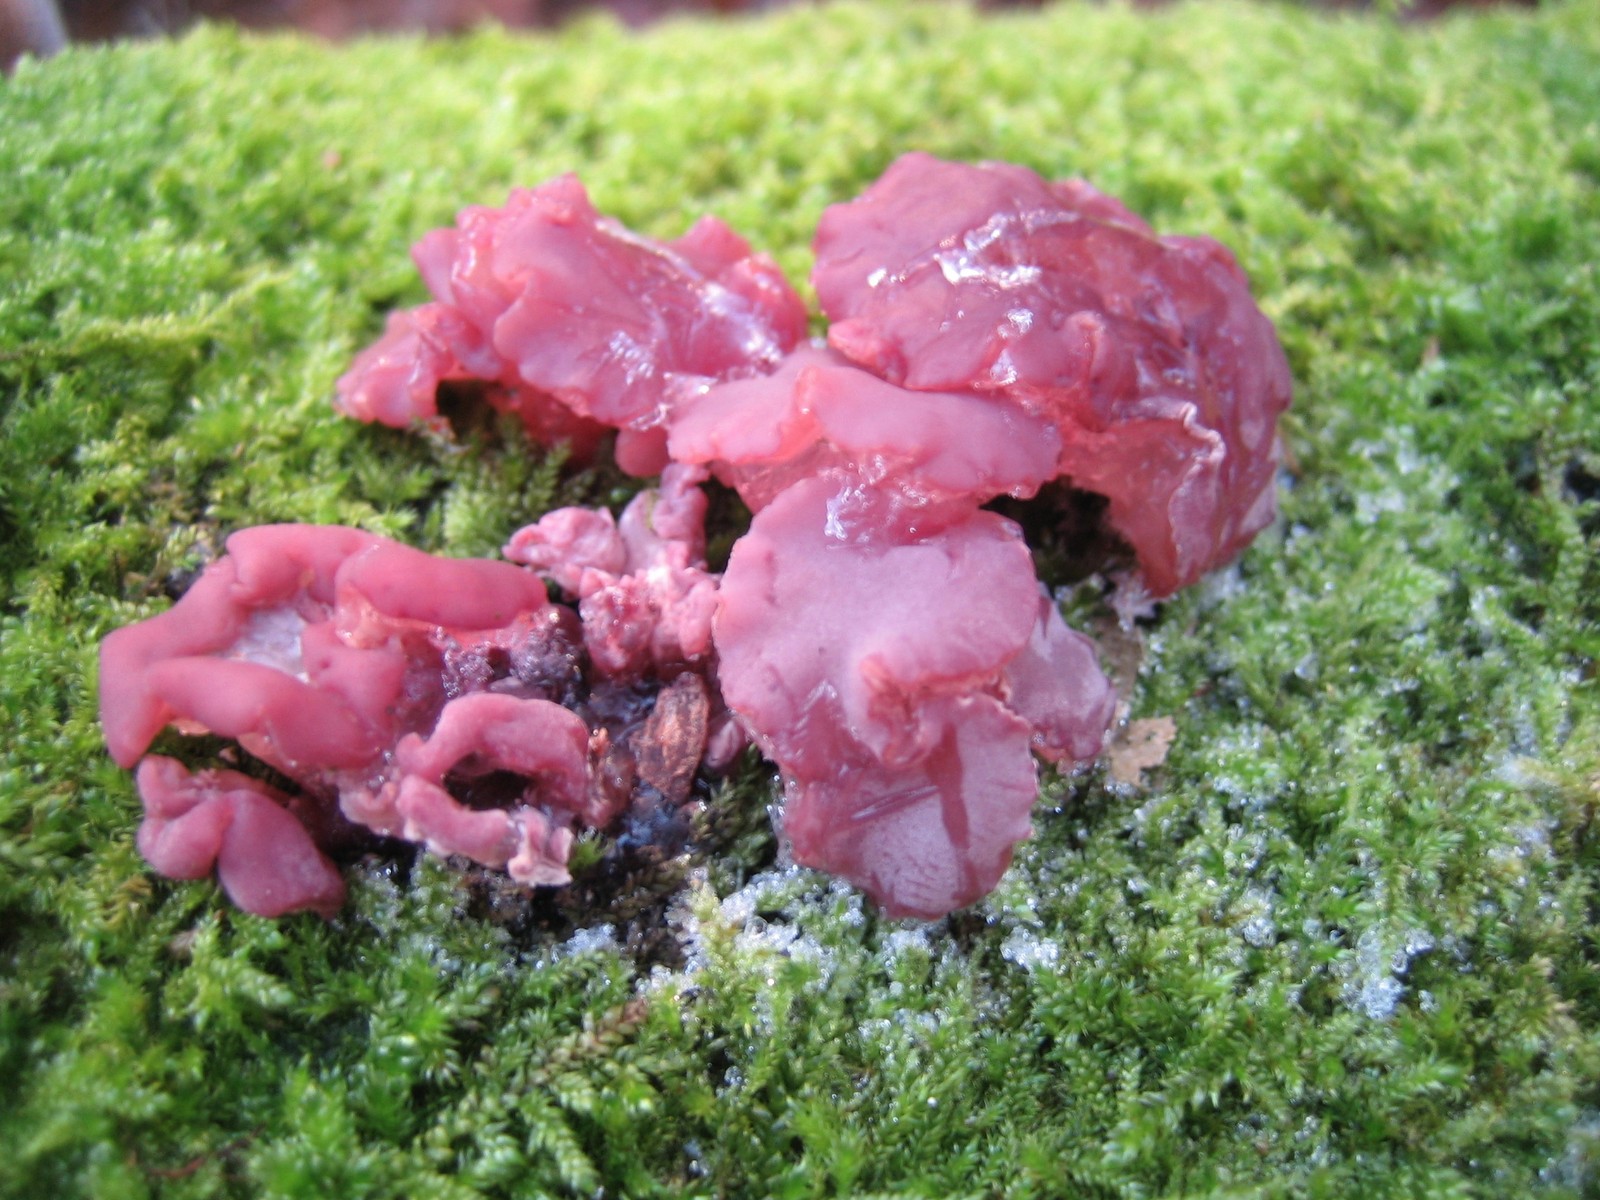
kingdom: Fungi
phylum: Ascomycota
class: Leotiomycetes
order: Helotiales
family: Gelatinodiscaceae
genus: Ascocoryne
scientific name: Ascocoryne cylichnium
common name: stor sejskive
